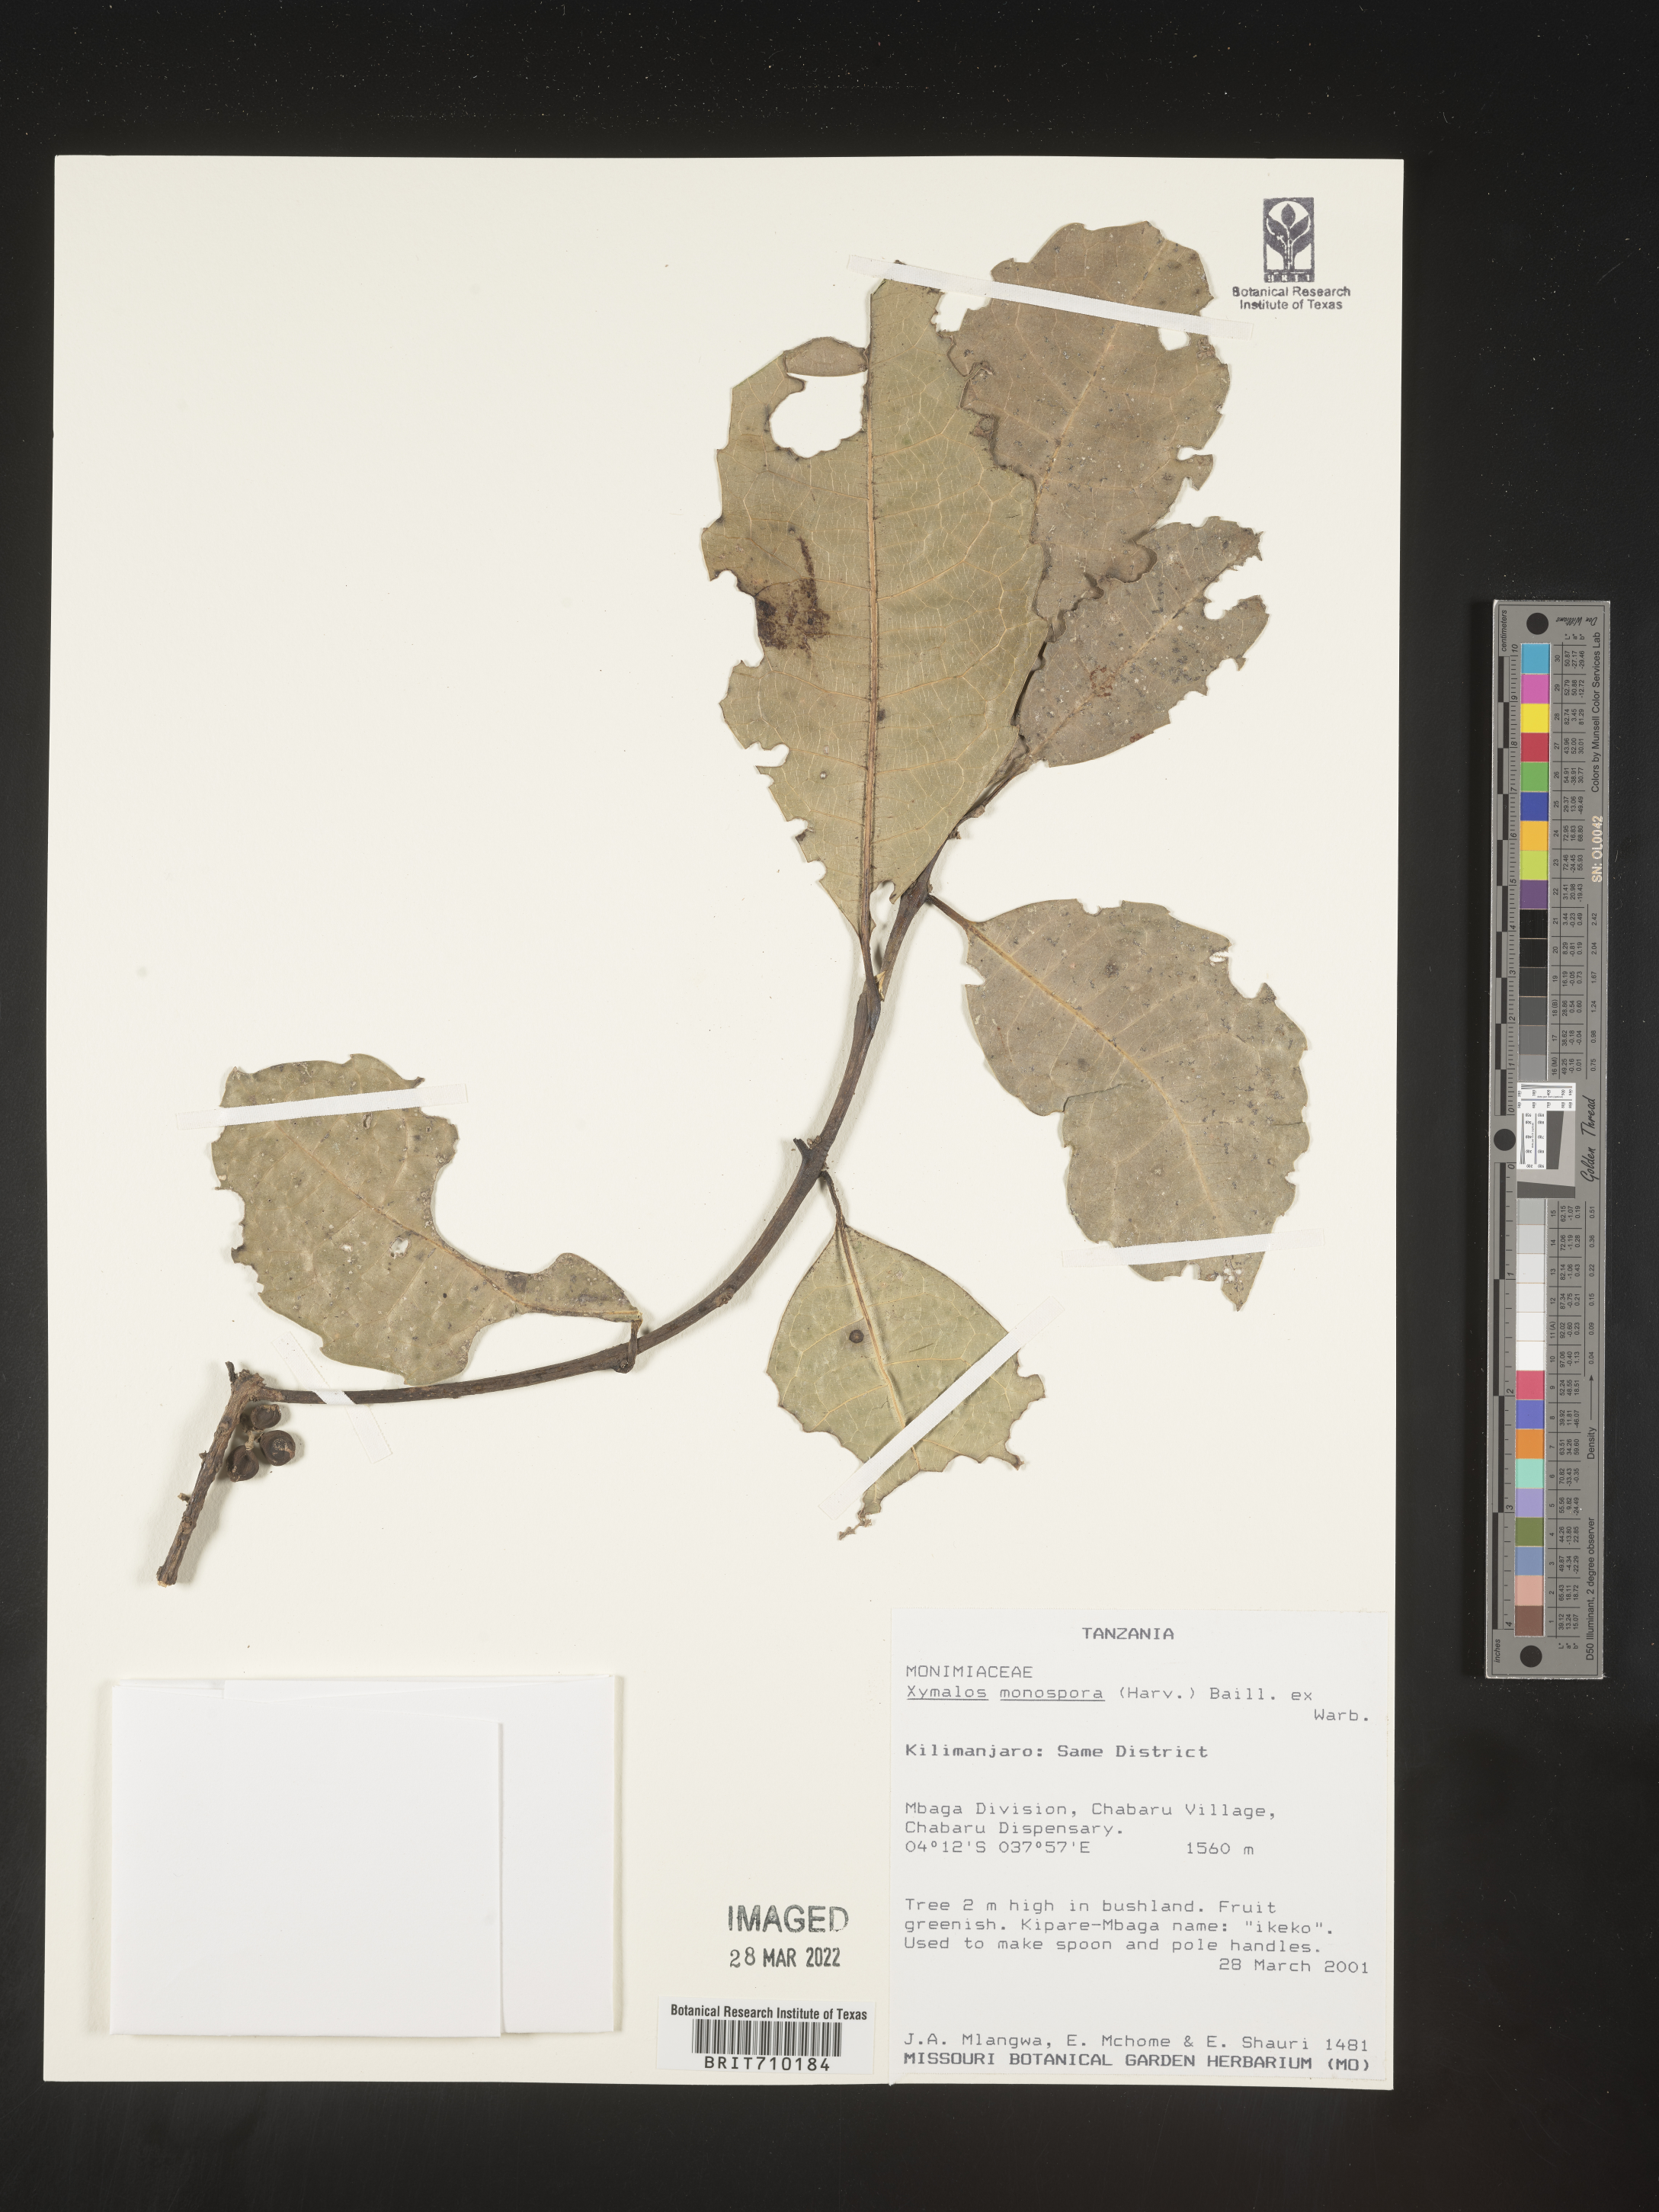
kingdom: Plantae
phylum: Tracheophyta
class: Magnoliopsida
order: Laurales
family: Monimiaceae
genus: Xymalos
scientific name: Xymalos
